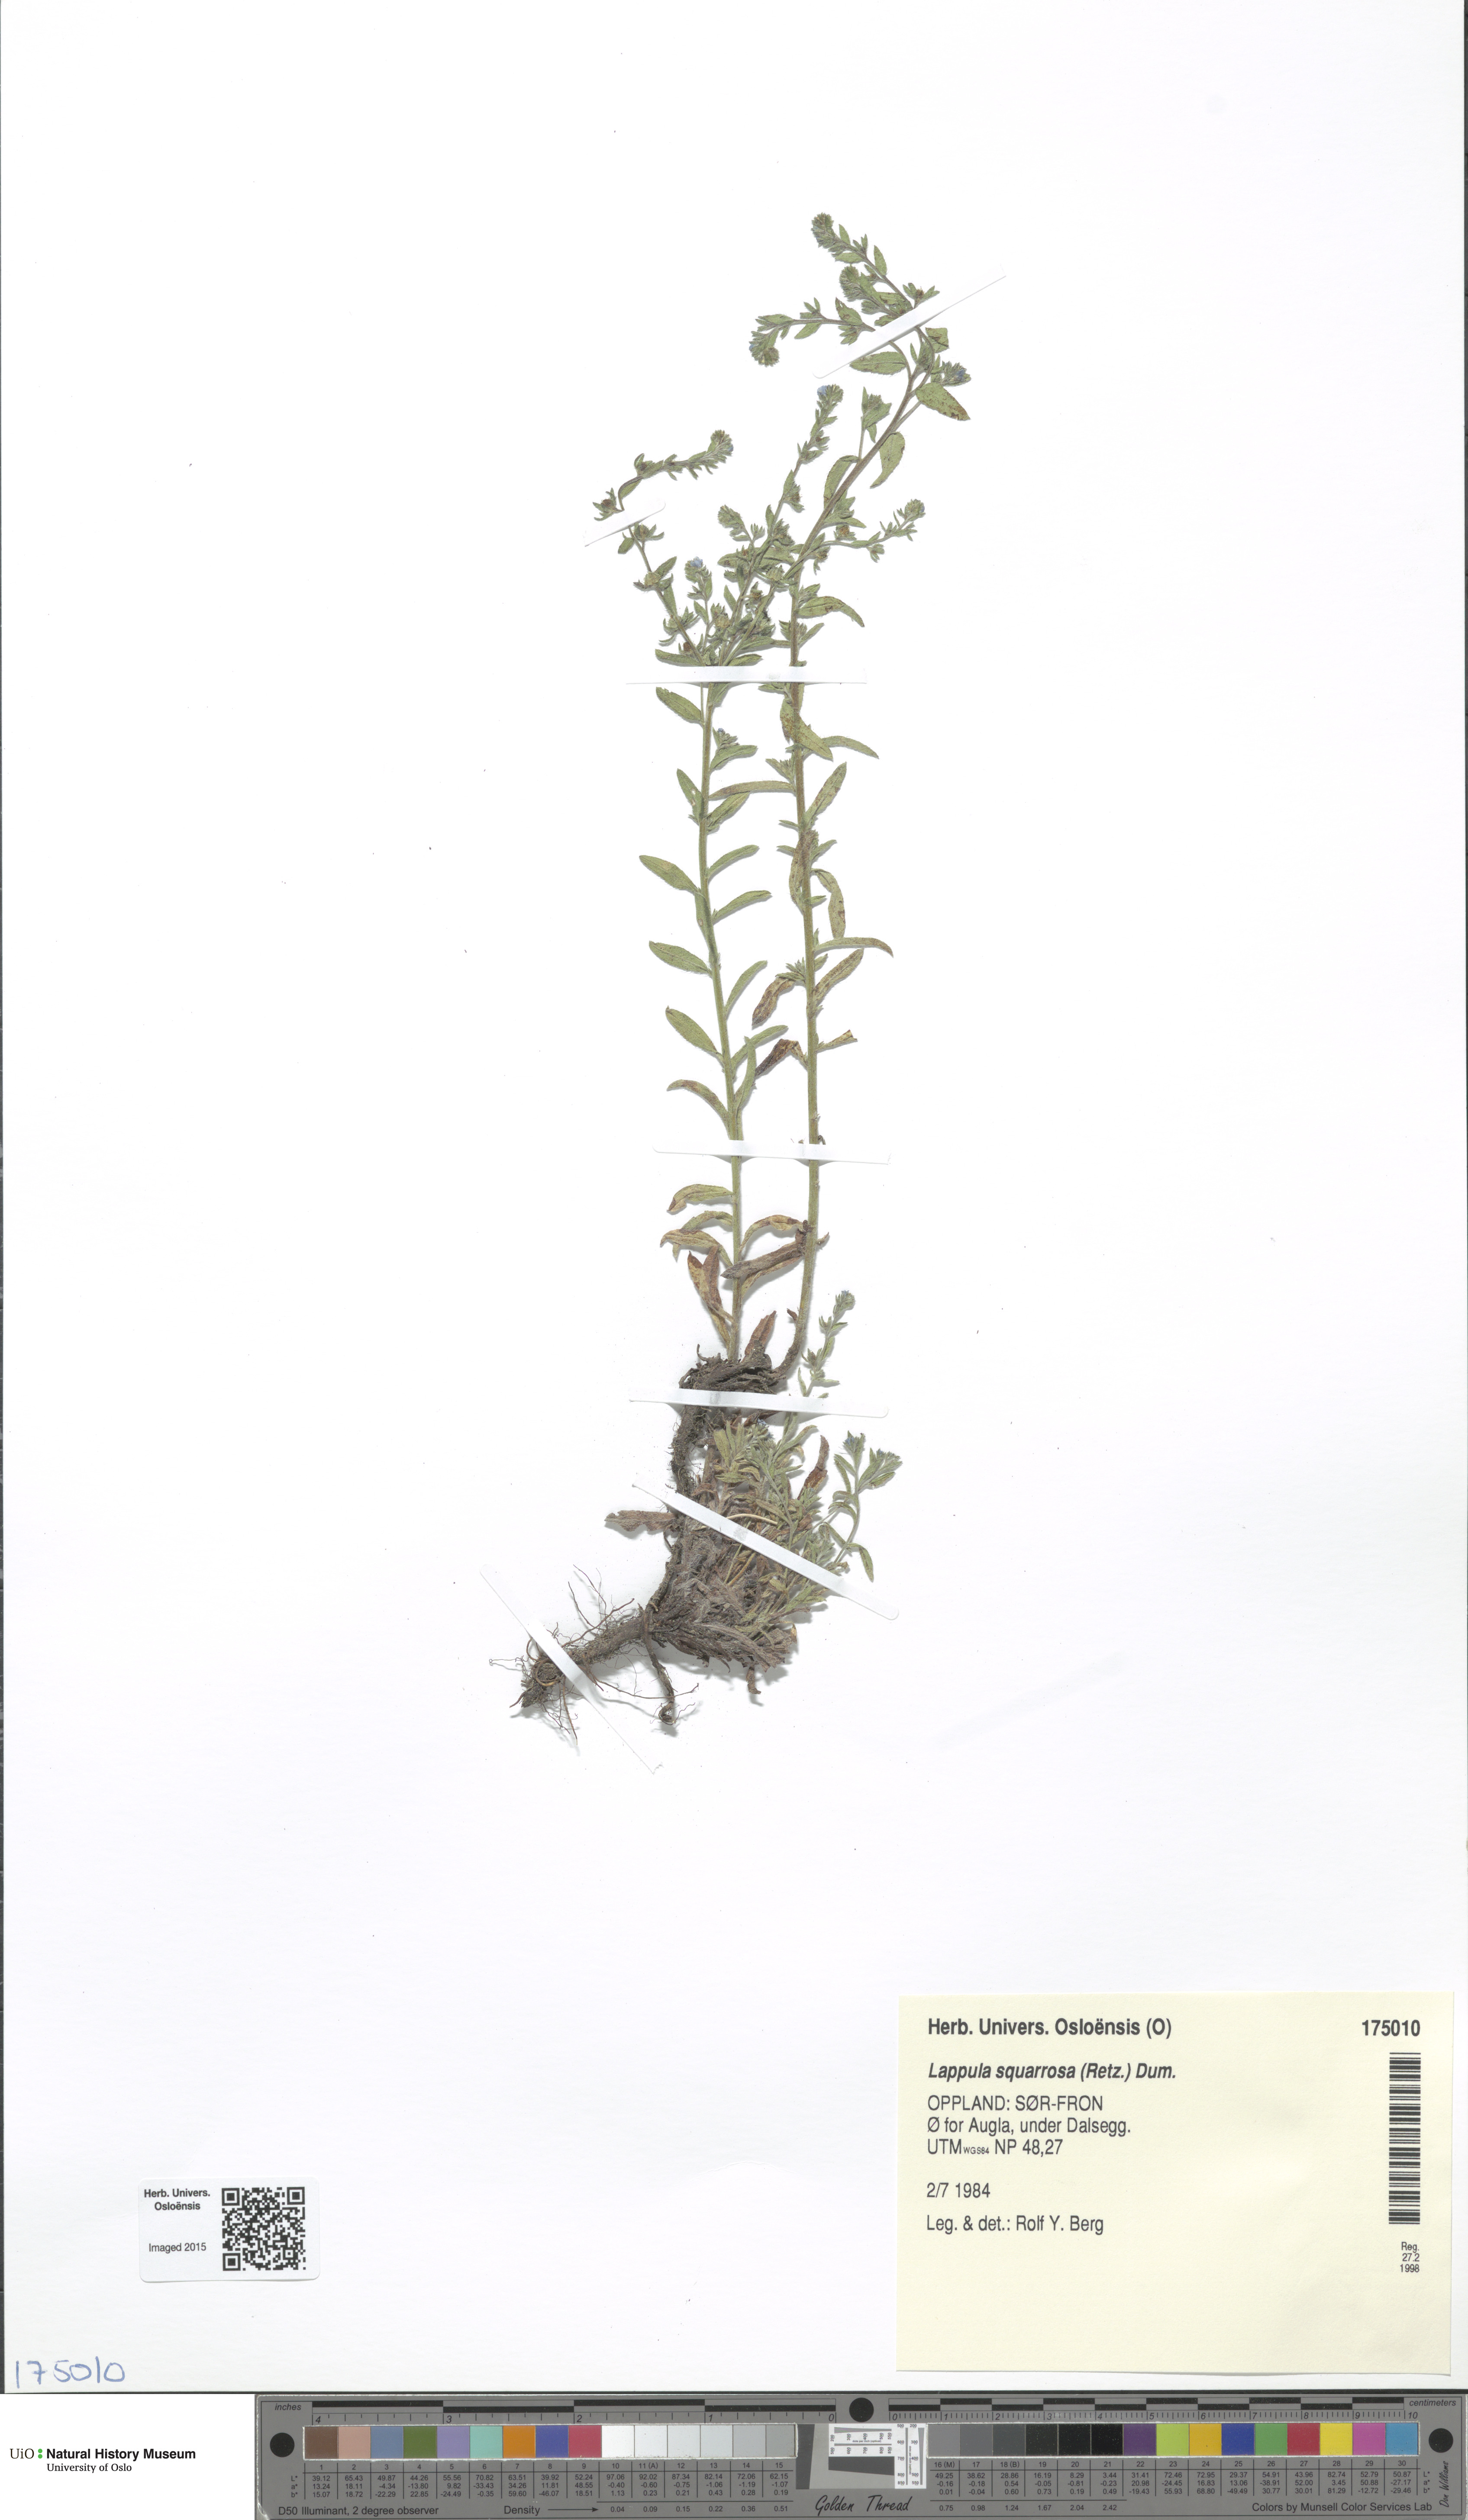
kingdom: Plantae
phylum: Tracheophyta
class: Magnoliopsida
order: Boraginales
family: Boraginaceae
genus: Lappula
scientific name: Lappula squarrosa
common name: European stickseed
